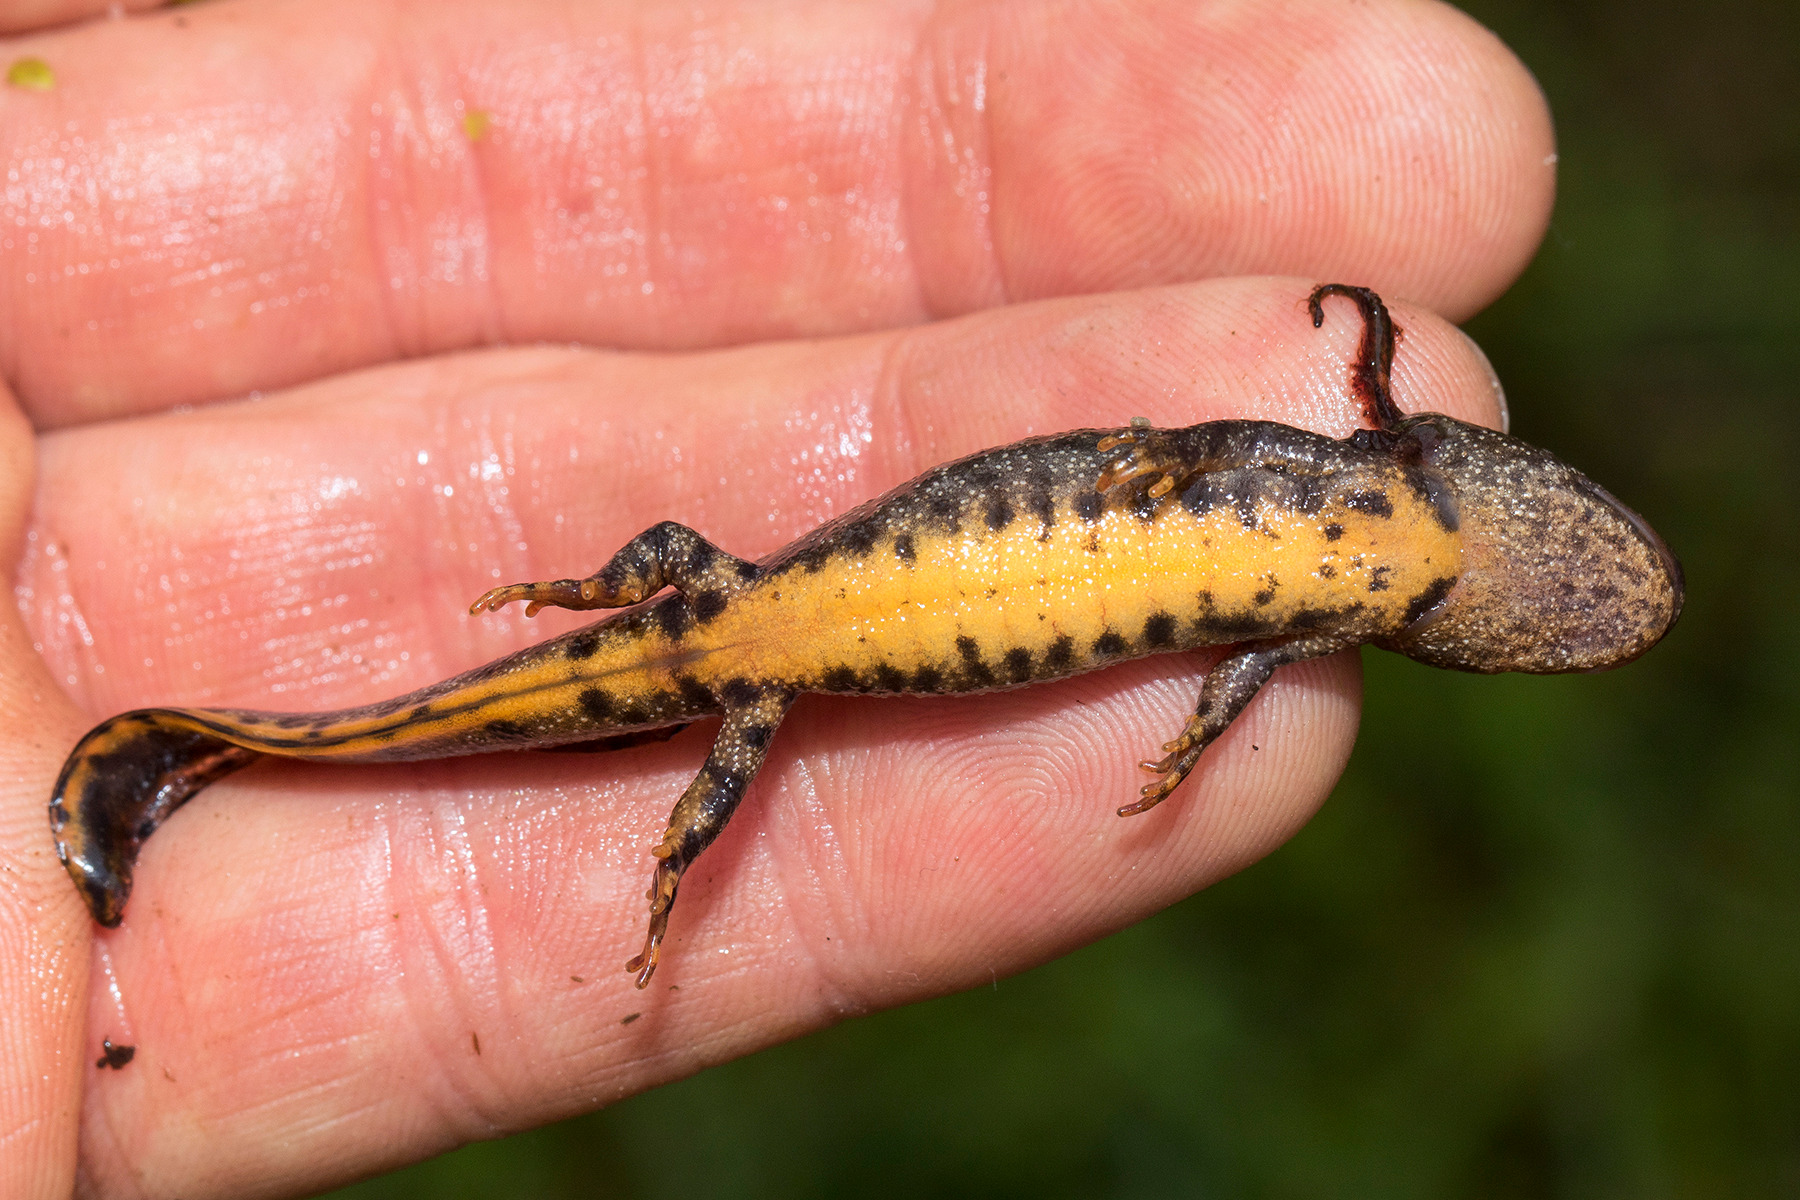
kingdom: Animalia
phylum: Chordata
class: Amphibia
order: Caudata
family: Salamandridae
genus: Triturus
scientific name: Triturus cristatus
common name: Stor vandsalamander
